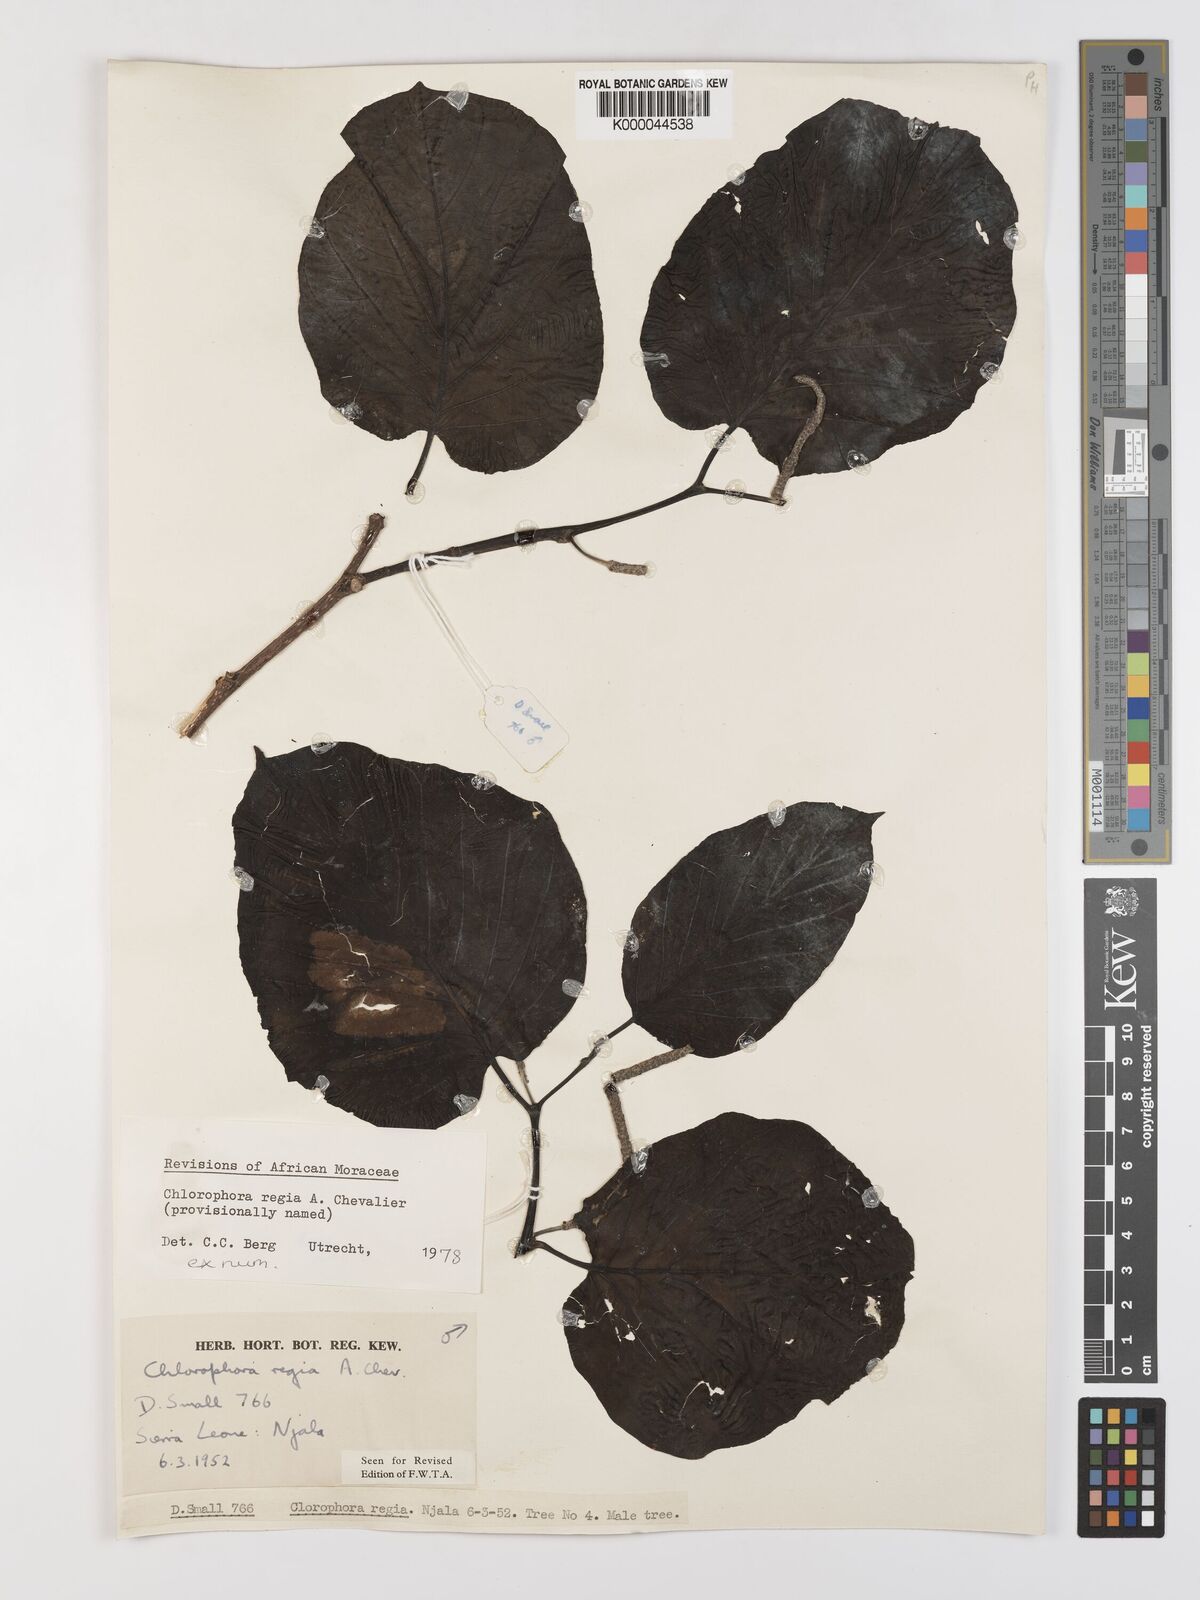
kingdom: Plantae
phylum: Tracheophyta
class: Magnoliopsida
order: Rosales
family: Moraceae
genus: Milicia
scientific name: Milicia regia
